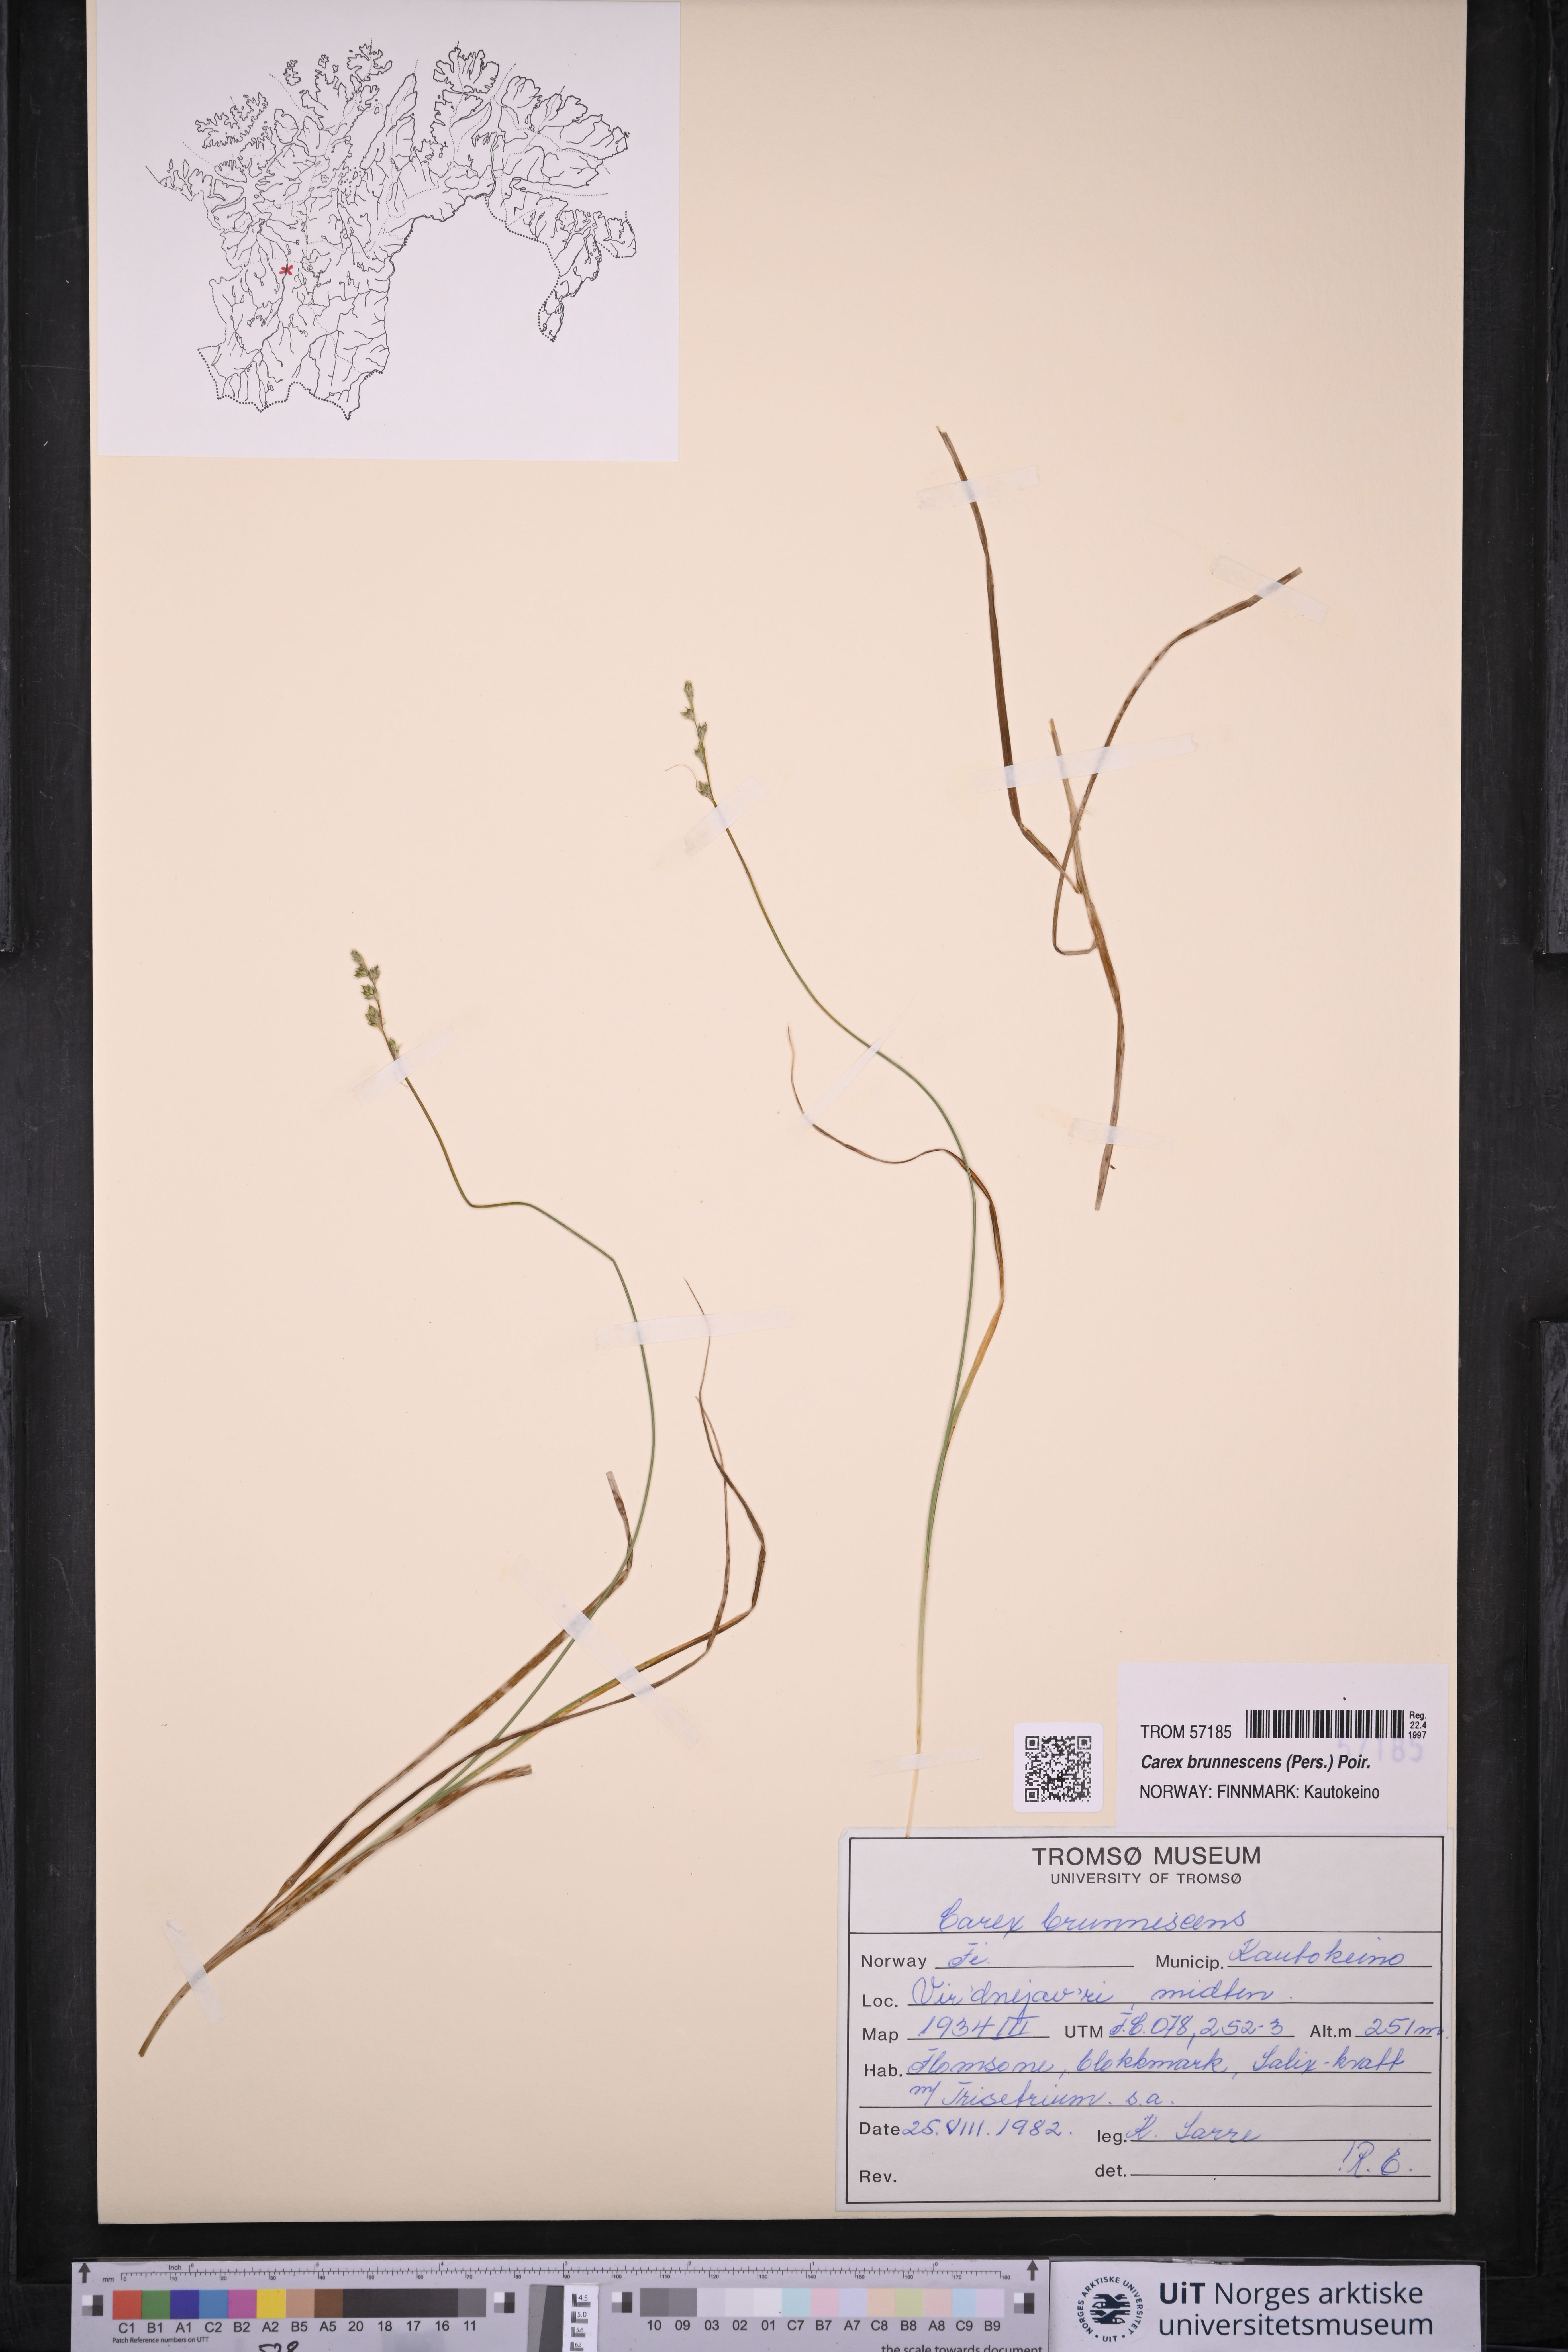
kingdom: Plantae
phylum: Tracheophyta
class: Liliopsida
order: Poales
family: Cyperaceae
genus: Carex
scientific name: Carex brunnescens
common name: Brown sedge
